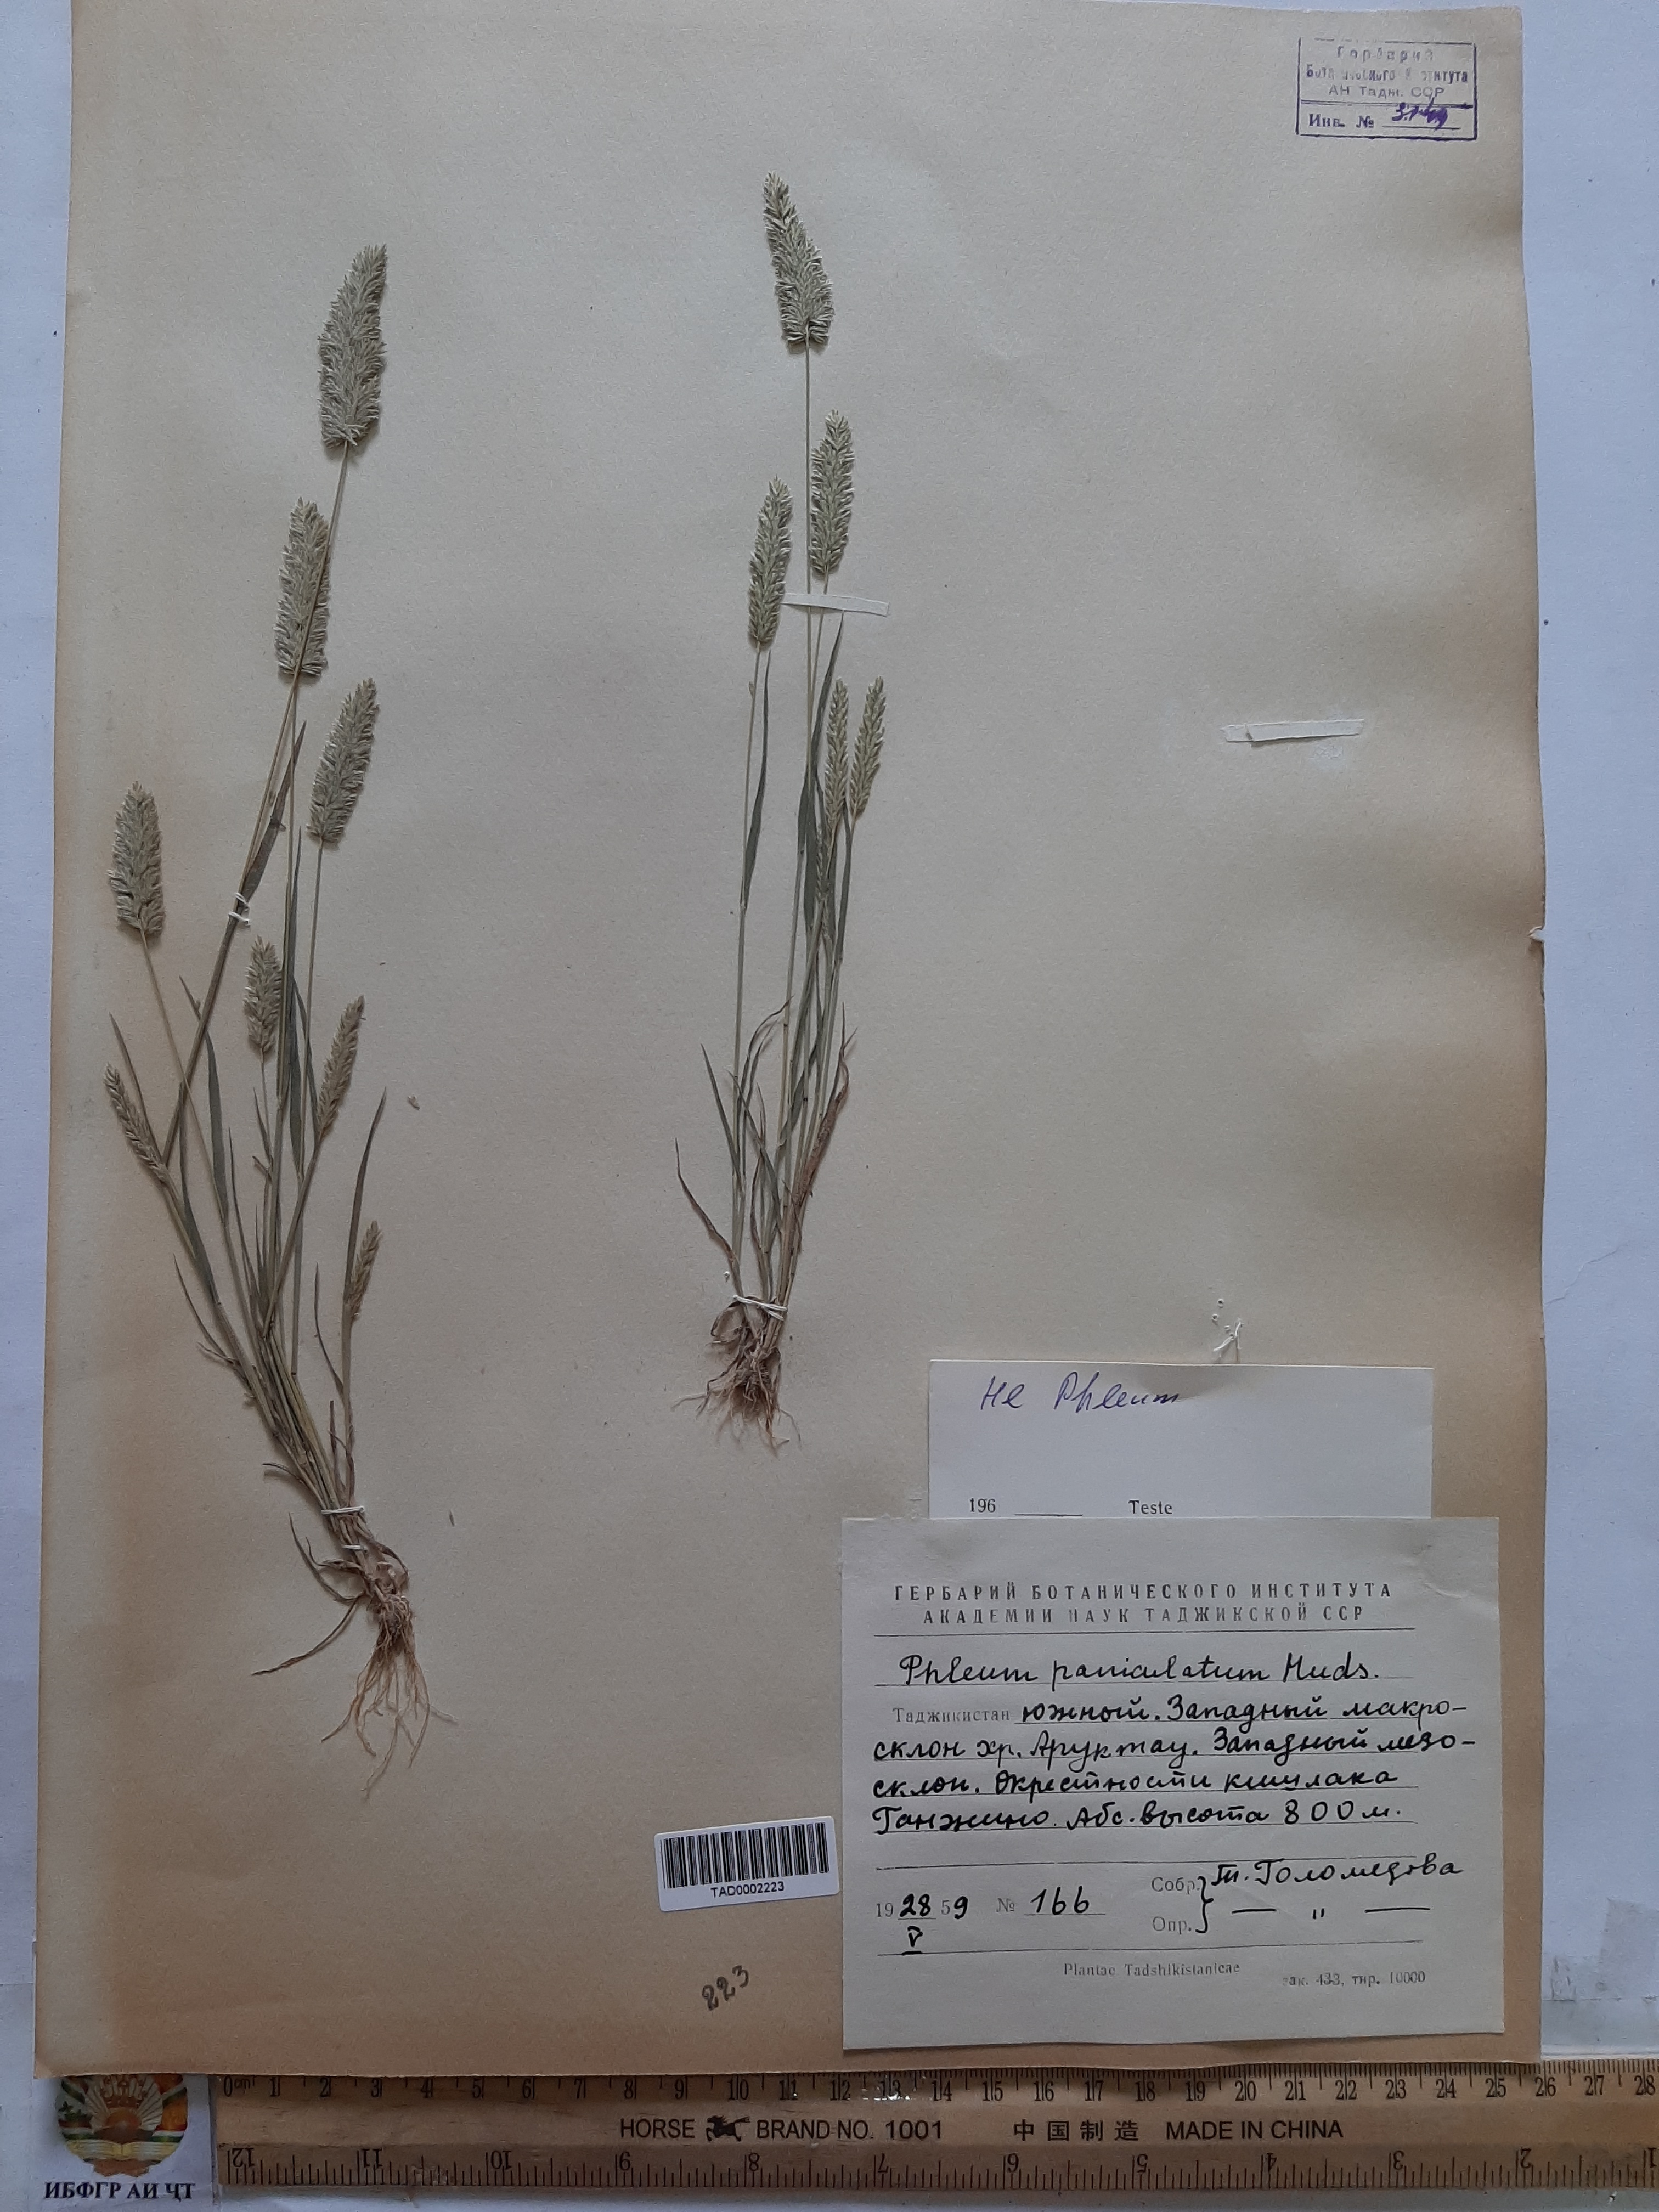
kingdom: Plantae
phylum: Tracheophyta
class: Liliopsida
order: Poales
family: Poaceae
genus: Phleum
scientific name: Phleum paniculatum
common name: British timothy
